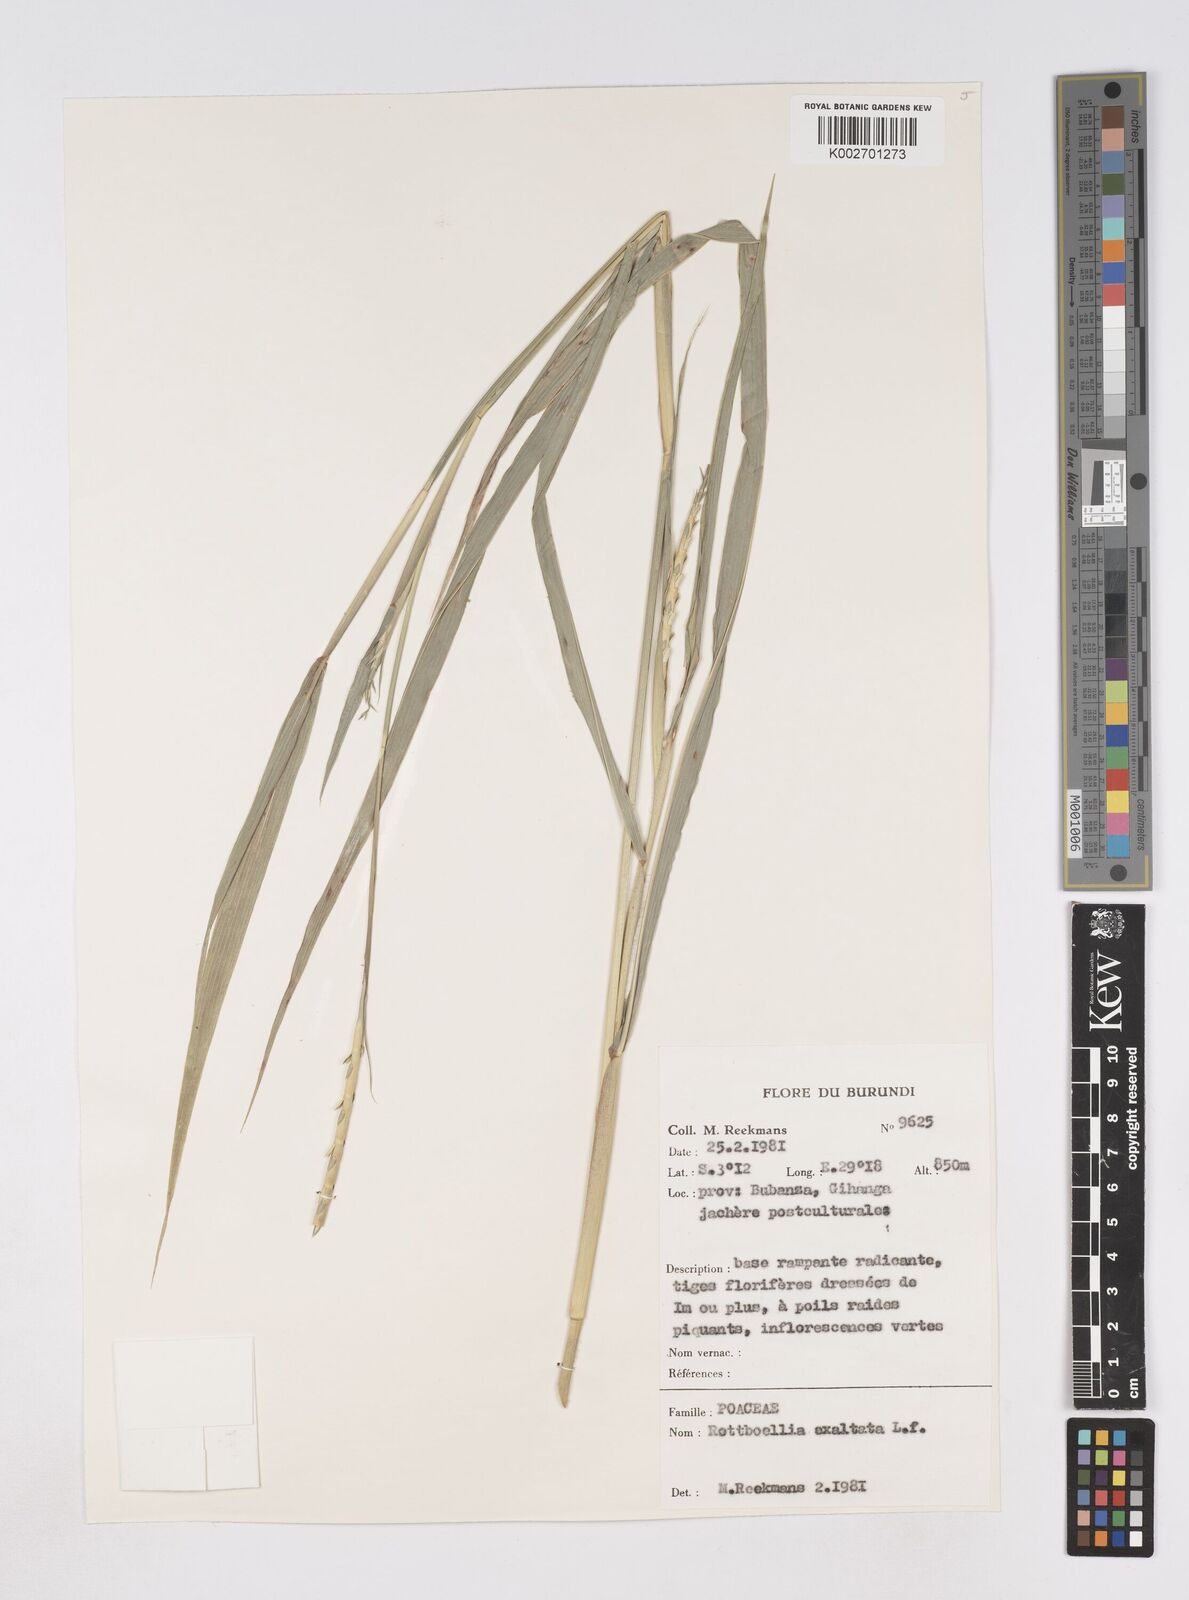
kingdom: Plantae
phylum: Tracheophyta
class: Liliopsida
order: Poales
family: Poaceae
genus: Rottboellia
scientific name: Rottboellia
